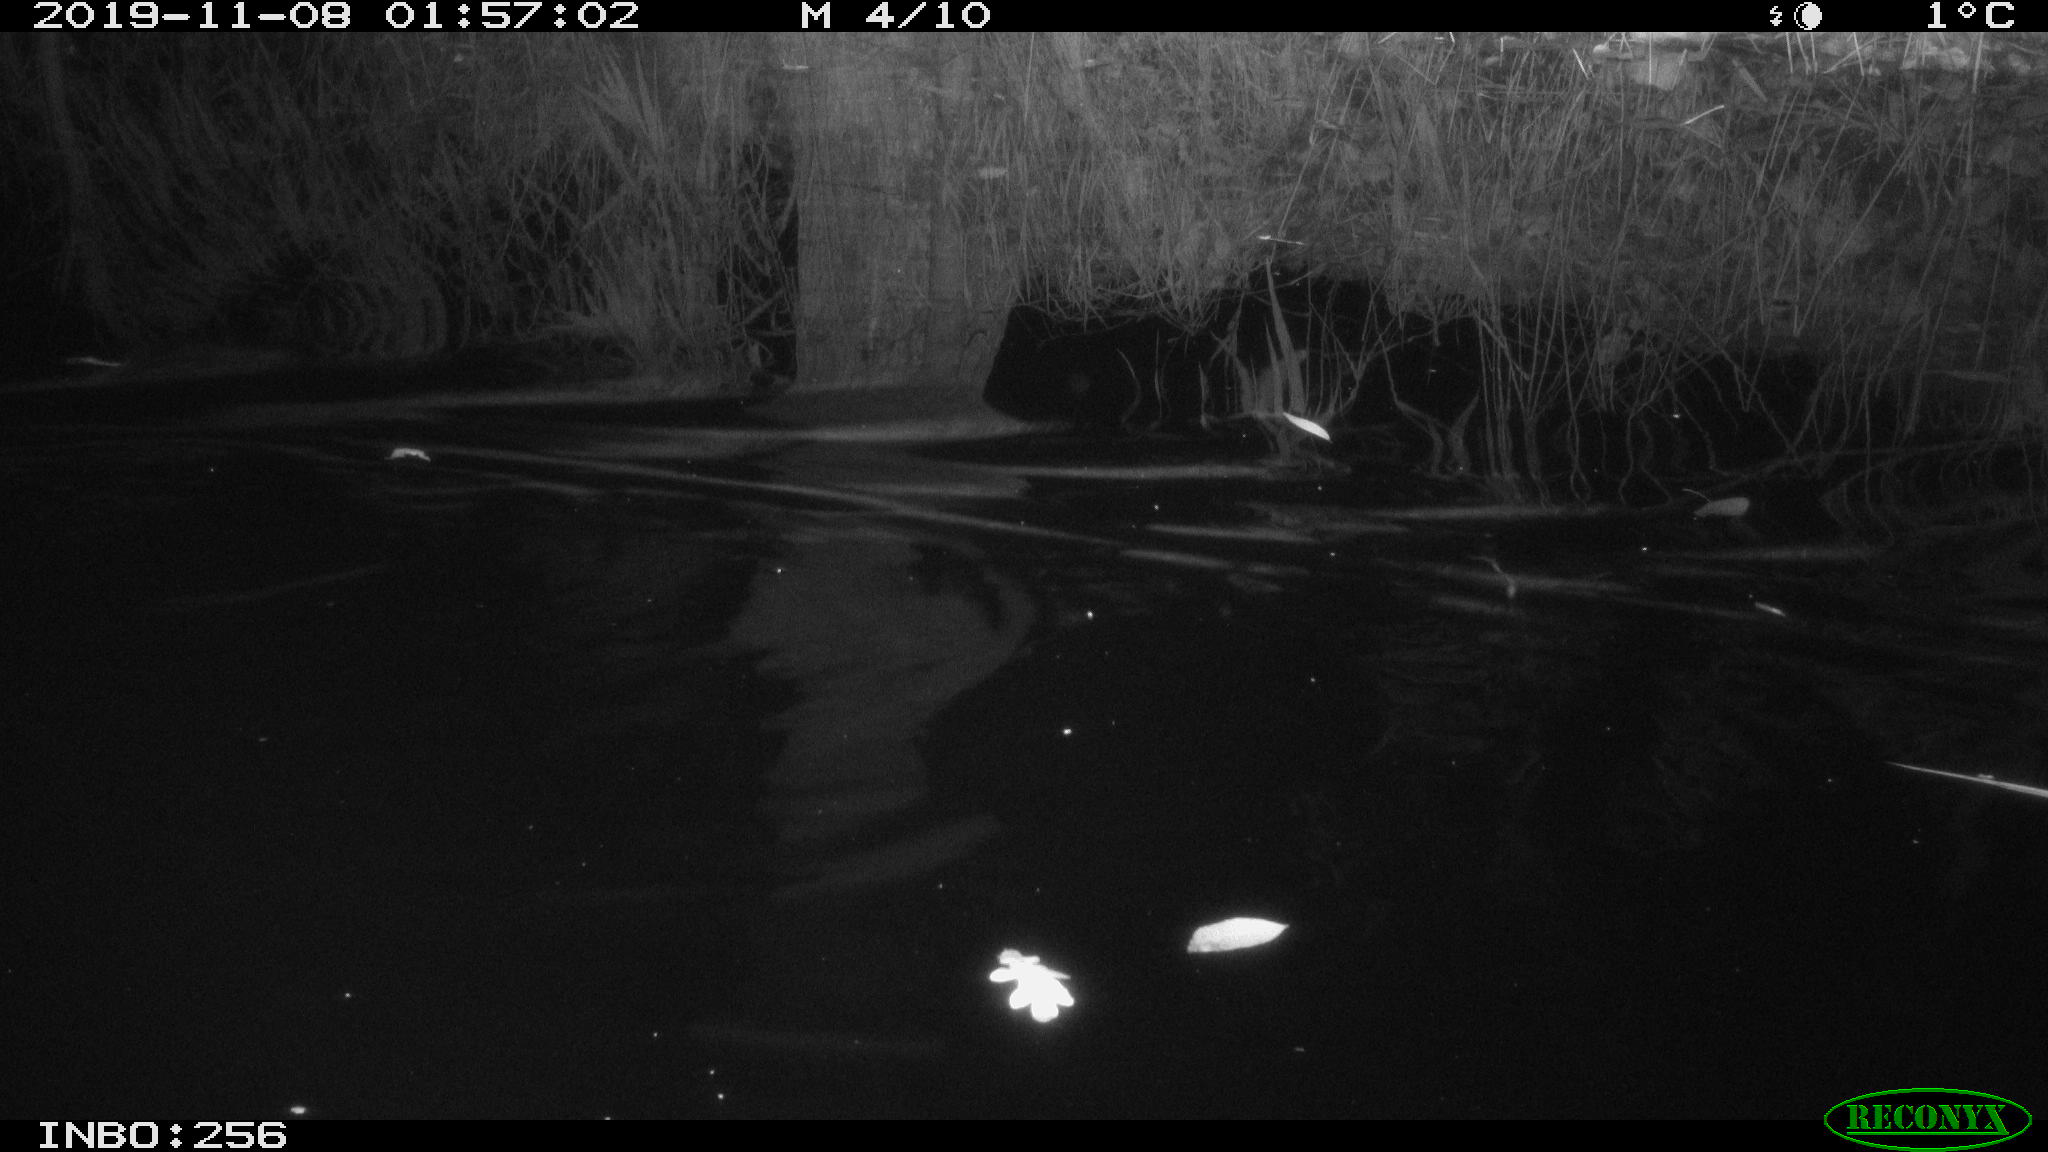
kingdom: Animalia
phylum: Chordata
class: Mammalia
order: Rodentia
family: Muridae
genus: Rattus
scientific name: Rattus norvegicus
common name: Brown rat
